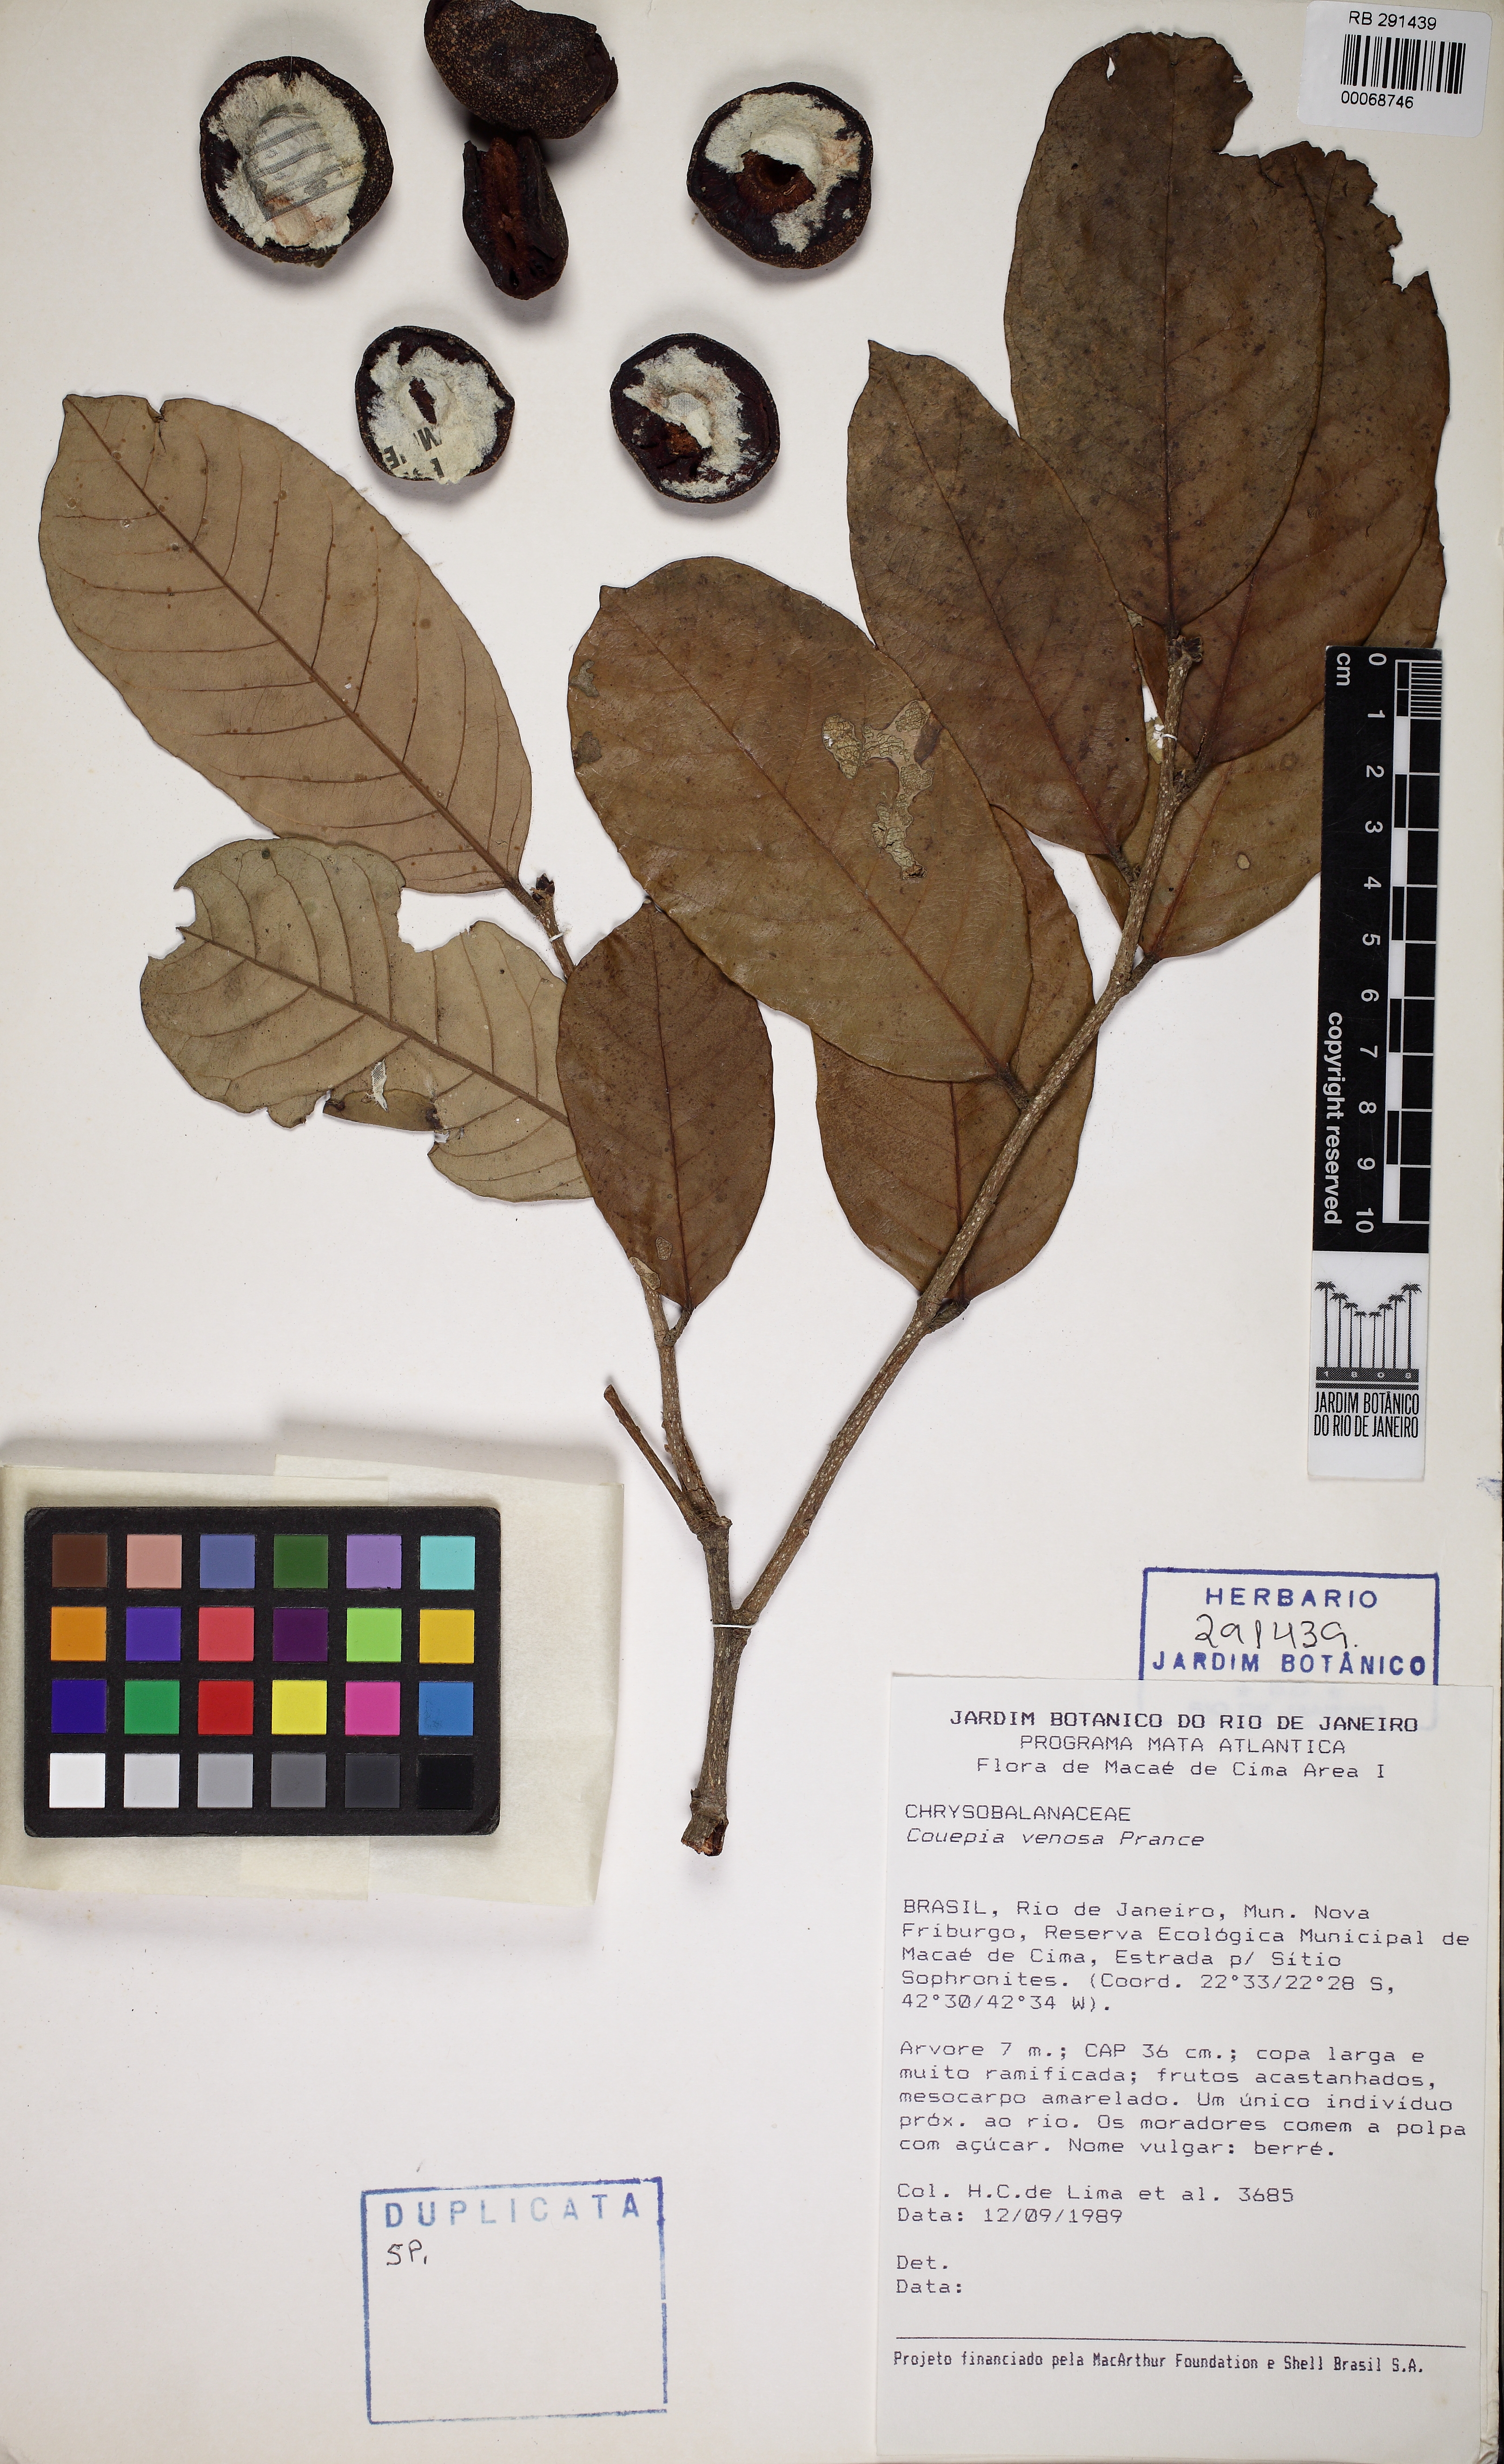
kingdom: Plantae
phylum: Tracheophyta
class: Magnoliopsida
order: Malpighiales
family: Chrysobalanaceae
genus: Couepia
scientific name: Couepia venosa
